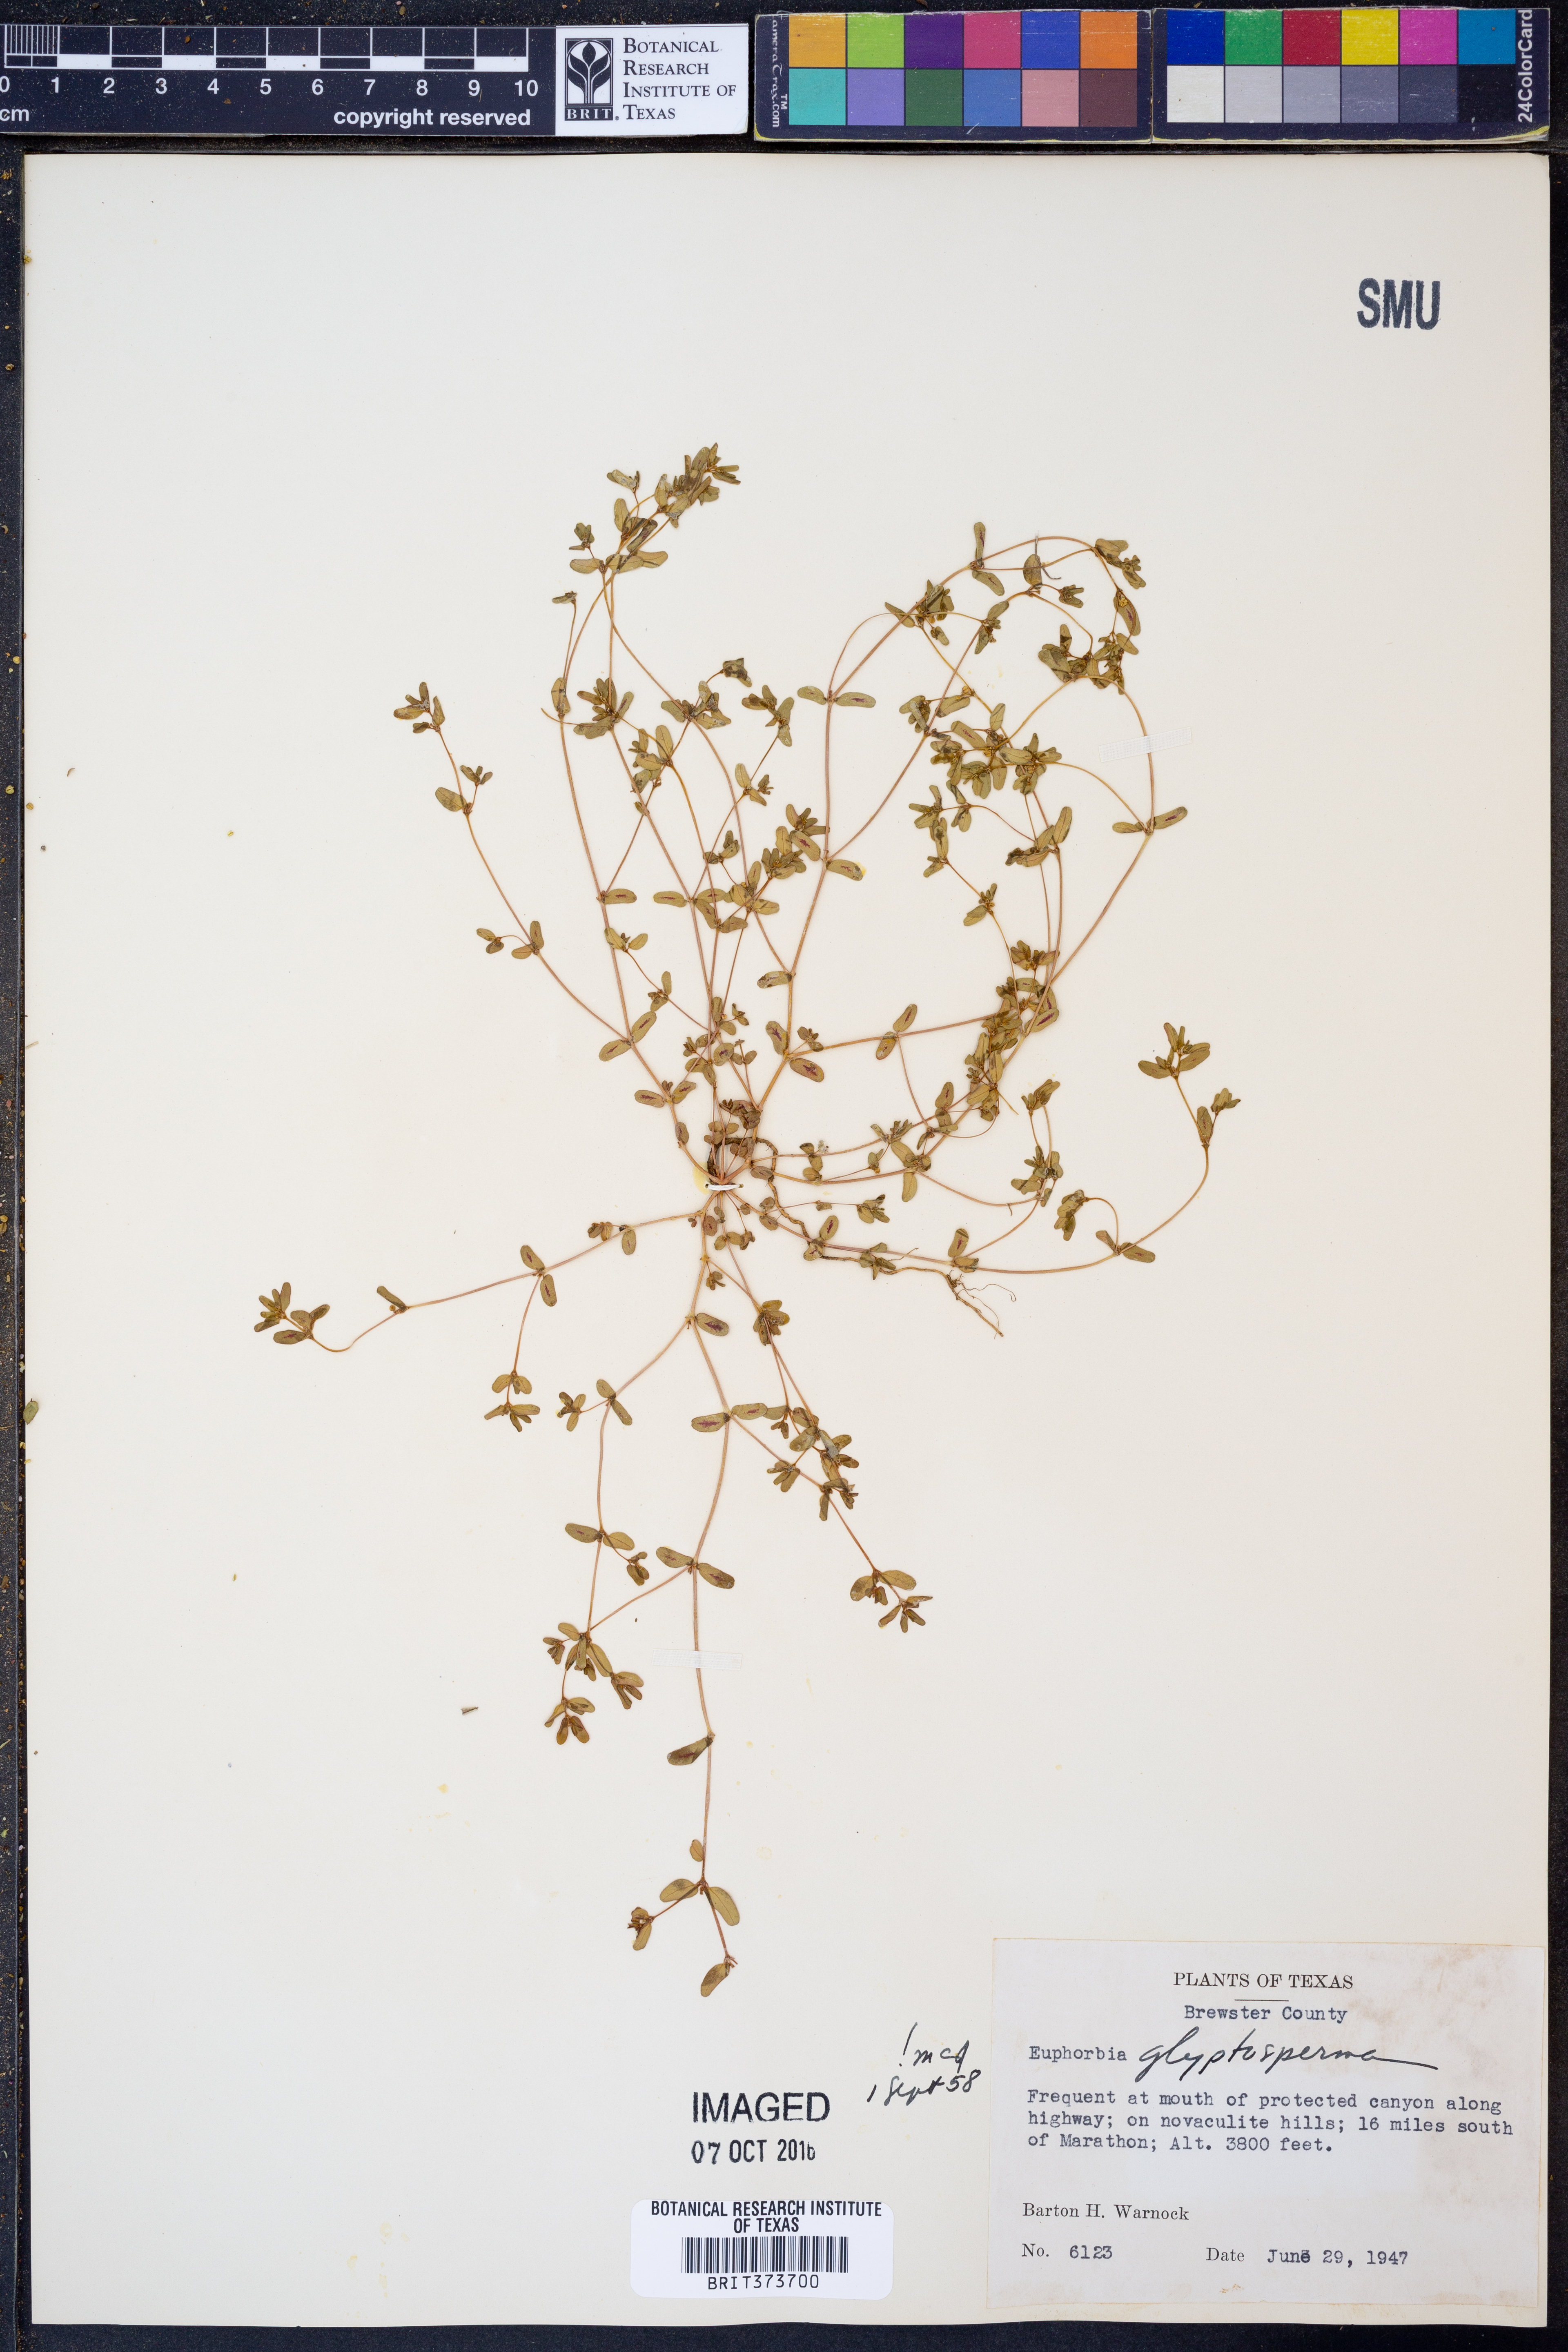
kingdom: Plantae
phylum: Tracheophyta
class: Magnoliopsida
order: Malpighiales
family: Euphorbiaceae
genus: Euphorbia
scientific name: Euphorbia glyptosperma
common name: Corrugate-seeded spurge
